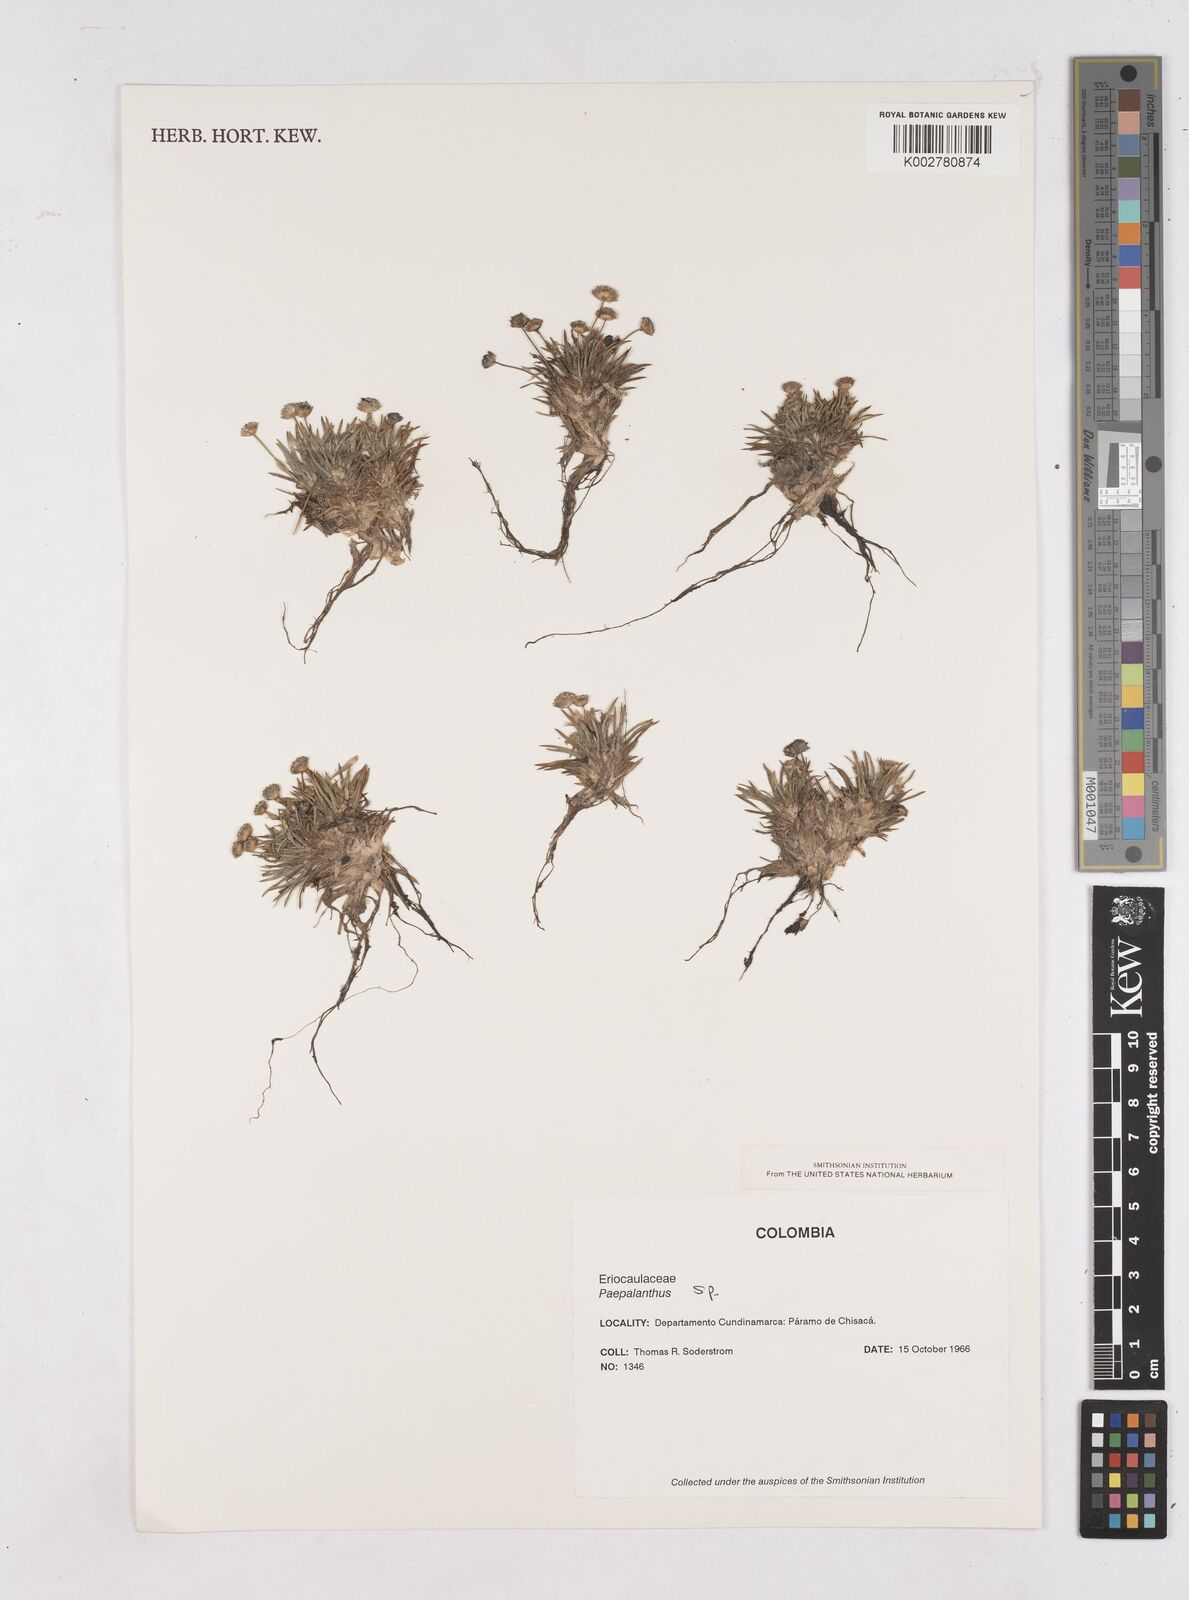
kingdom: Plantae
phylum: Tracheophyta
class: Liliopsida
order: Poales
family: Eriocaulaceae
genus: Paepalanthus
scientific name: Paepalanthus
